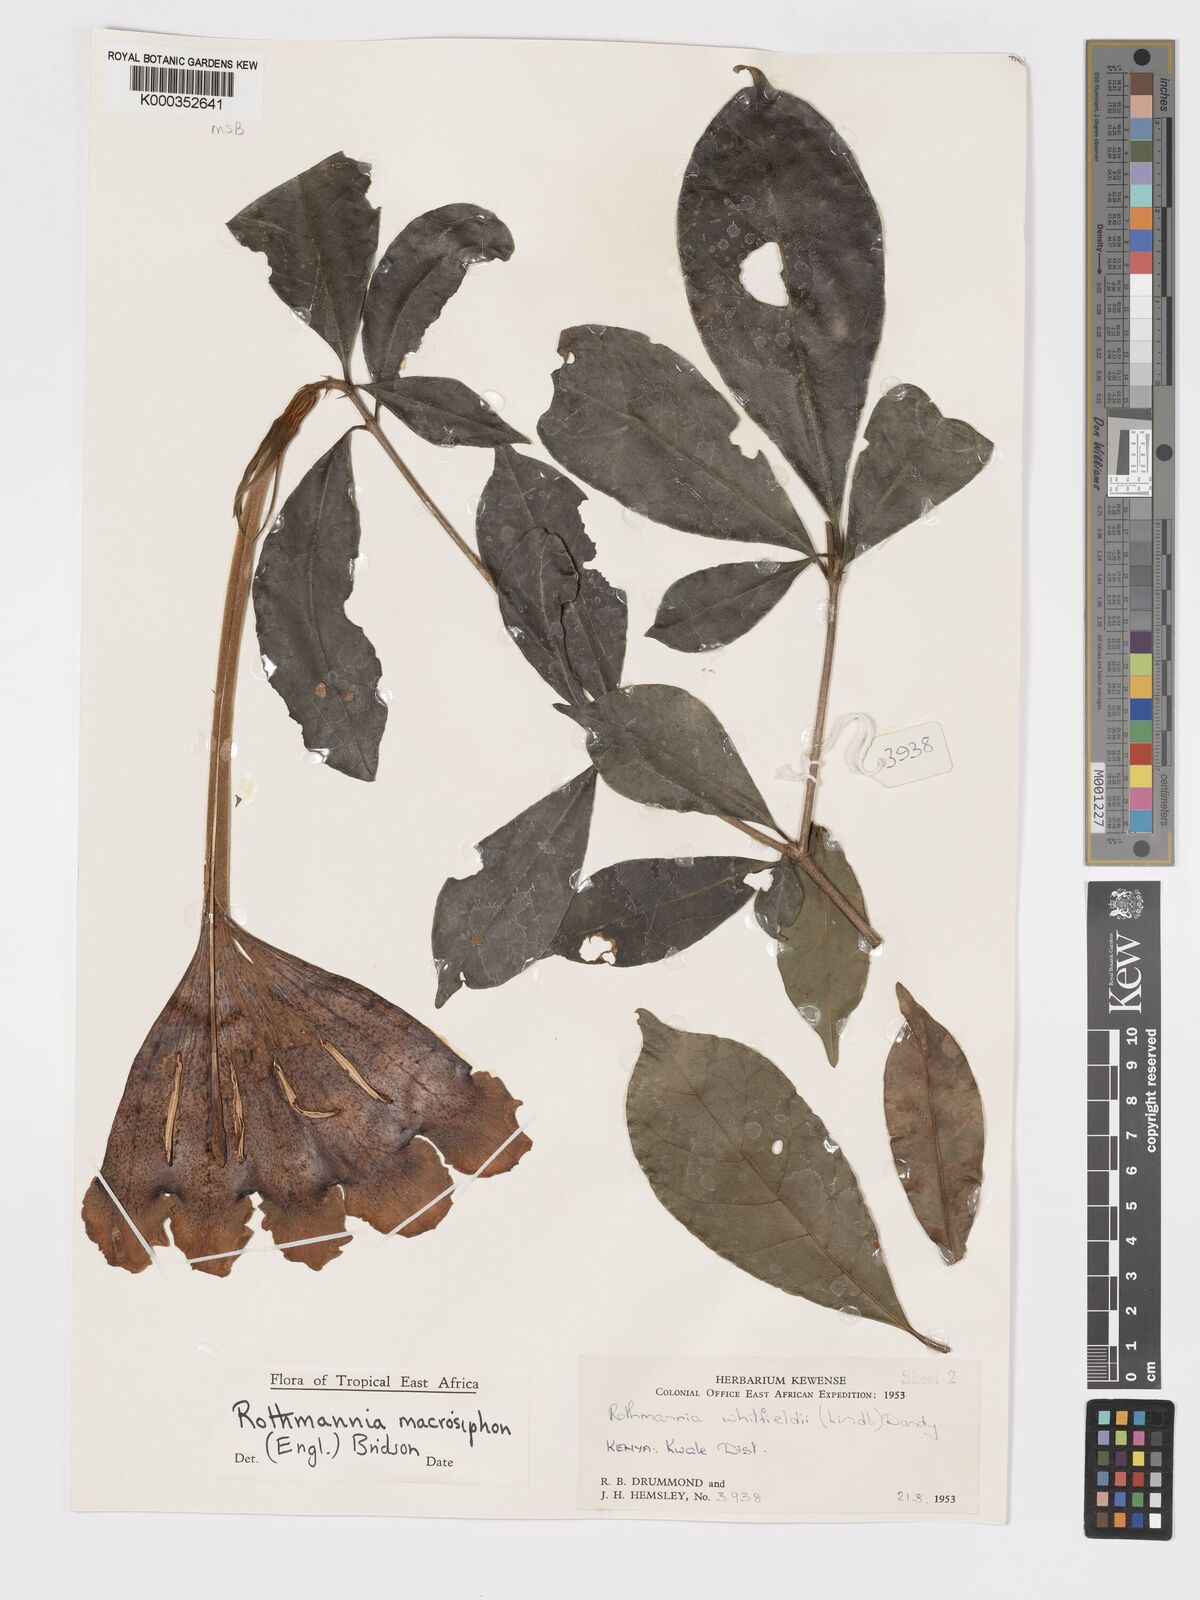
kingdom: Plantae
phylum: Tracheophyta
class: Magnoliopsida
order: Gentianales
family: Rubiaceae
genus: Rothmannia
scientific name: Rothmannia macrosiphon
